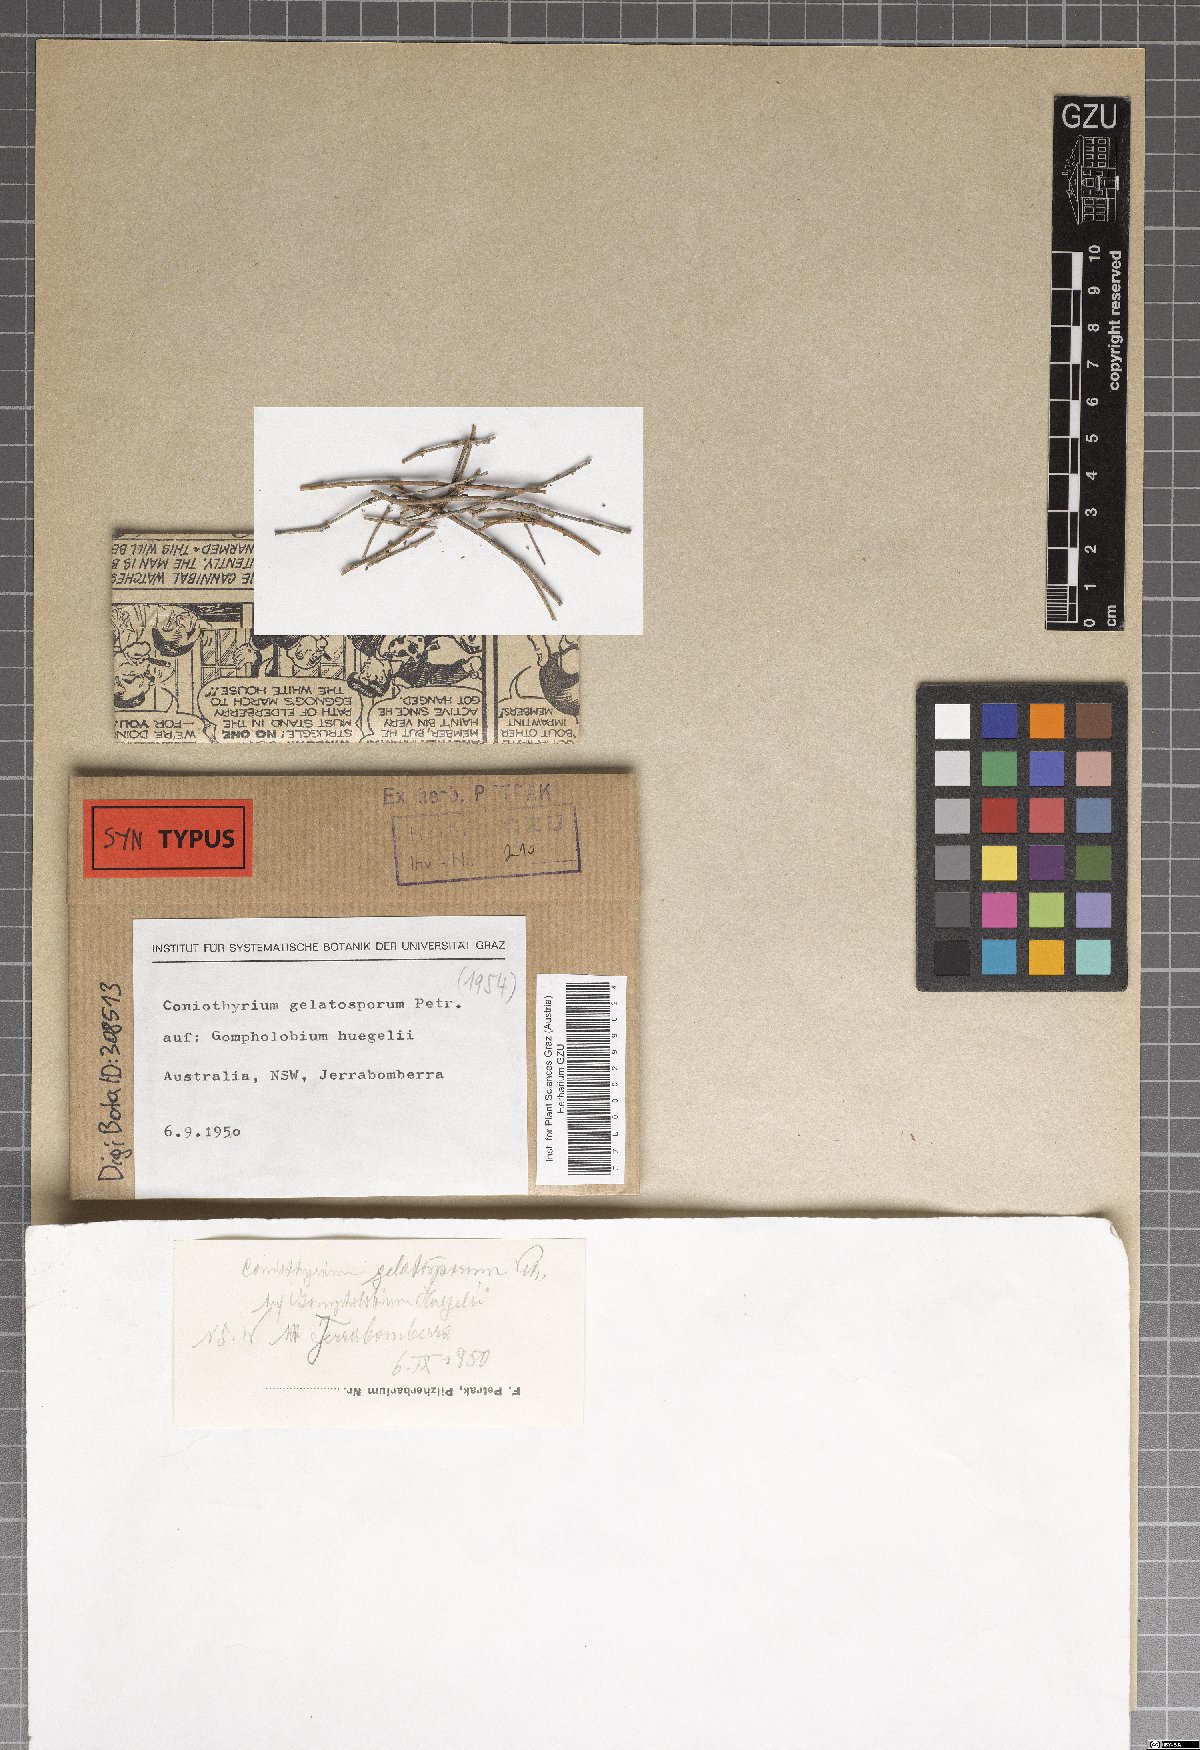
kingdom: Fungi
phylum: Ascomycota
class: Dothideomycetes
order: Pleosporales
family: Coniothyriaceae
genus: Coniothyrium
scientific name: Coniothyrium gelatosporum
